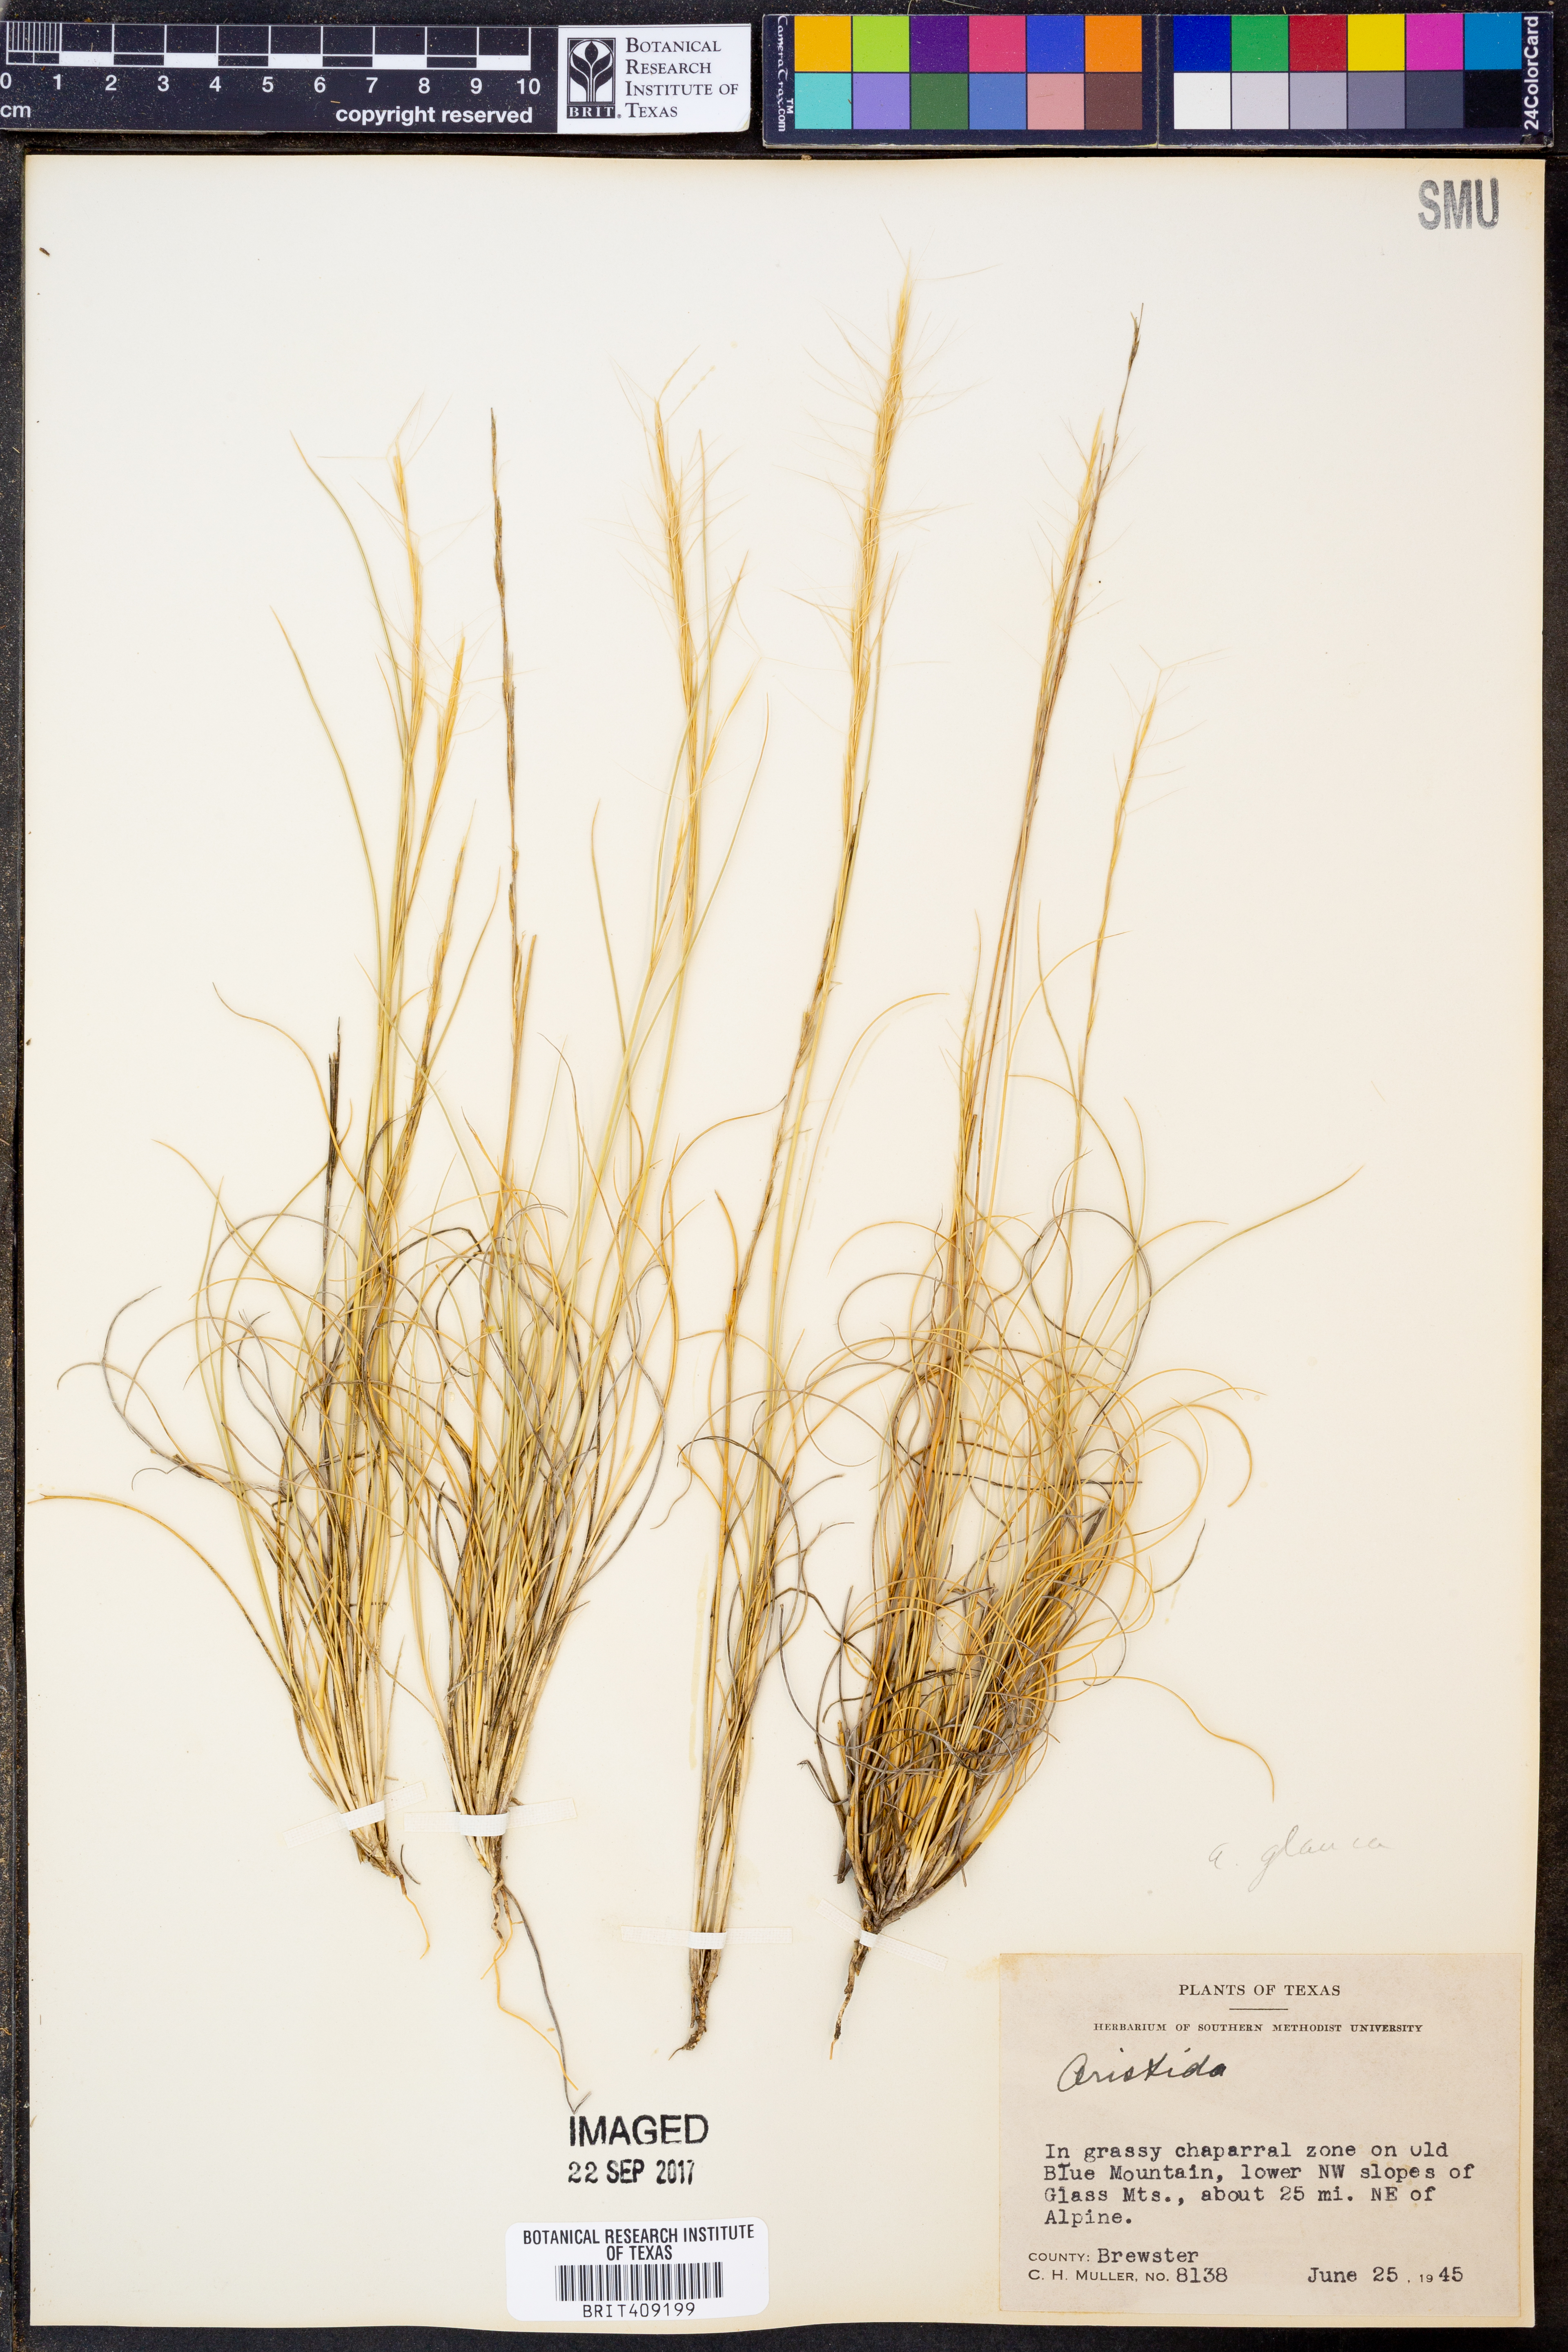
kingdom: Plantae
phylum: Tracheophyta
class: Liliopsida
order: Poales
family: Poaceae
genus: Aristida
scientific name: Aristida
